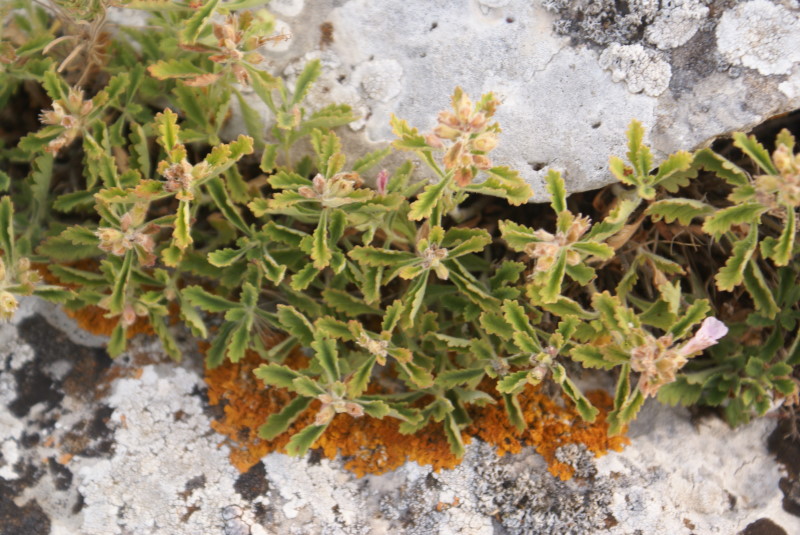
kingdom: Plantae
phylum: Tracheophyta
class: Magnoliopsida
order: Lamiales
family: Lamiaceae
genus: Thymus
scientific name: Thymus
